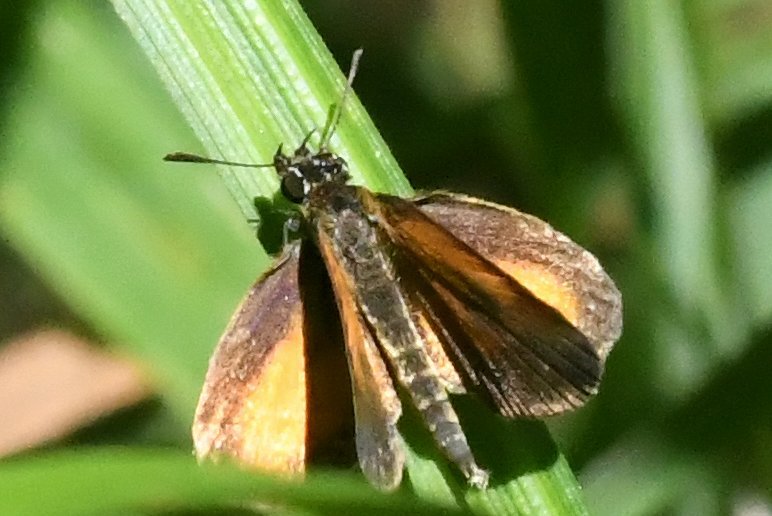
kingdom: Animalia
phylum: Arthropoda
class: Insecta
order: Lepidoptera
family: Hesperiidae
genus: Ancyloxypha
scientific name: Ancyloxypha numitor
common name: Least Skipper
